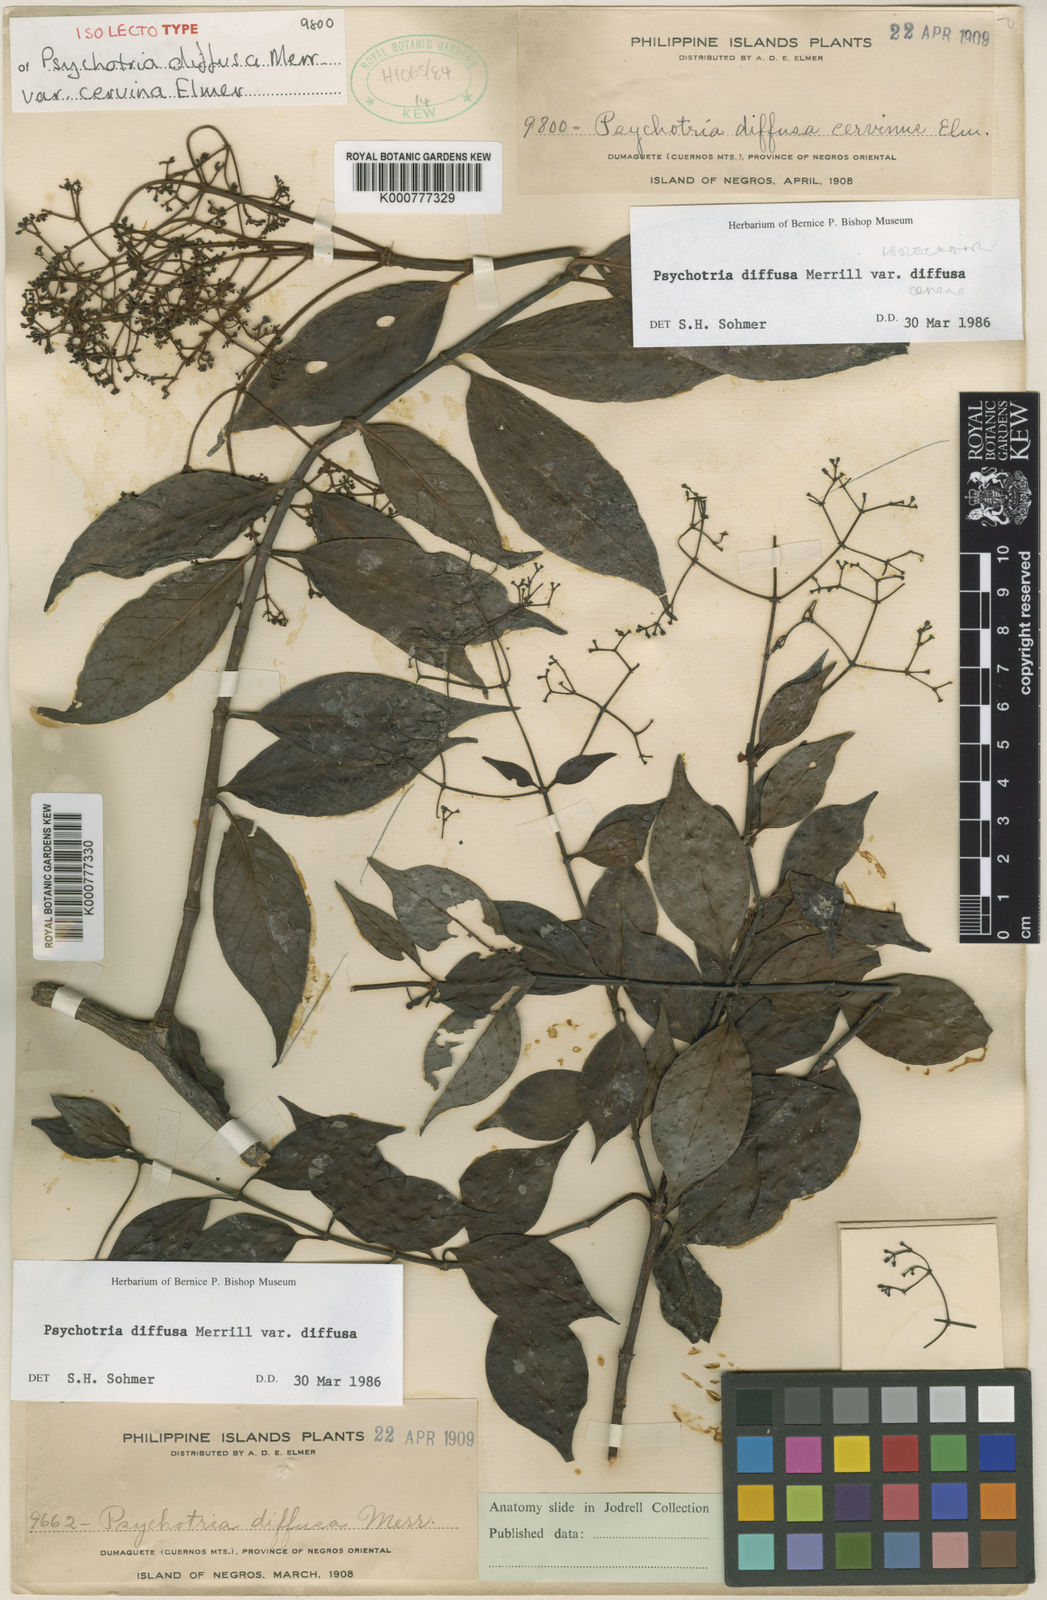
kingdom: Plantae
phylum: Tracheophyta
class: Magnoliopsida
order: Gentianales
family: Rubiaceae
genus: Psychotria
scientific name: Psychotria diffusa
